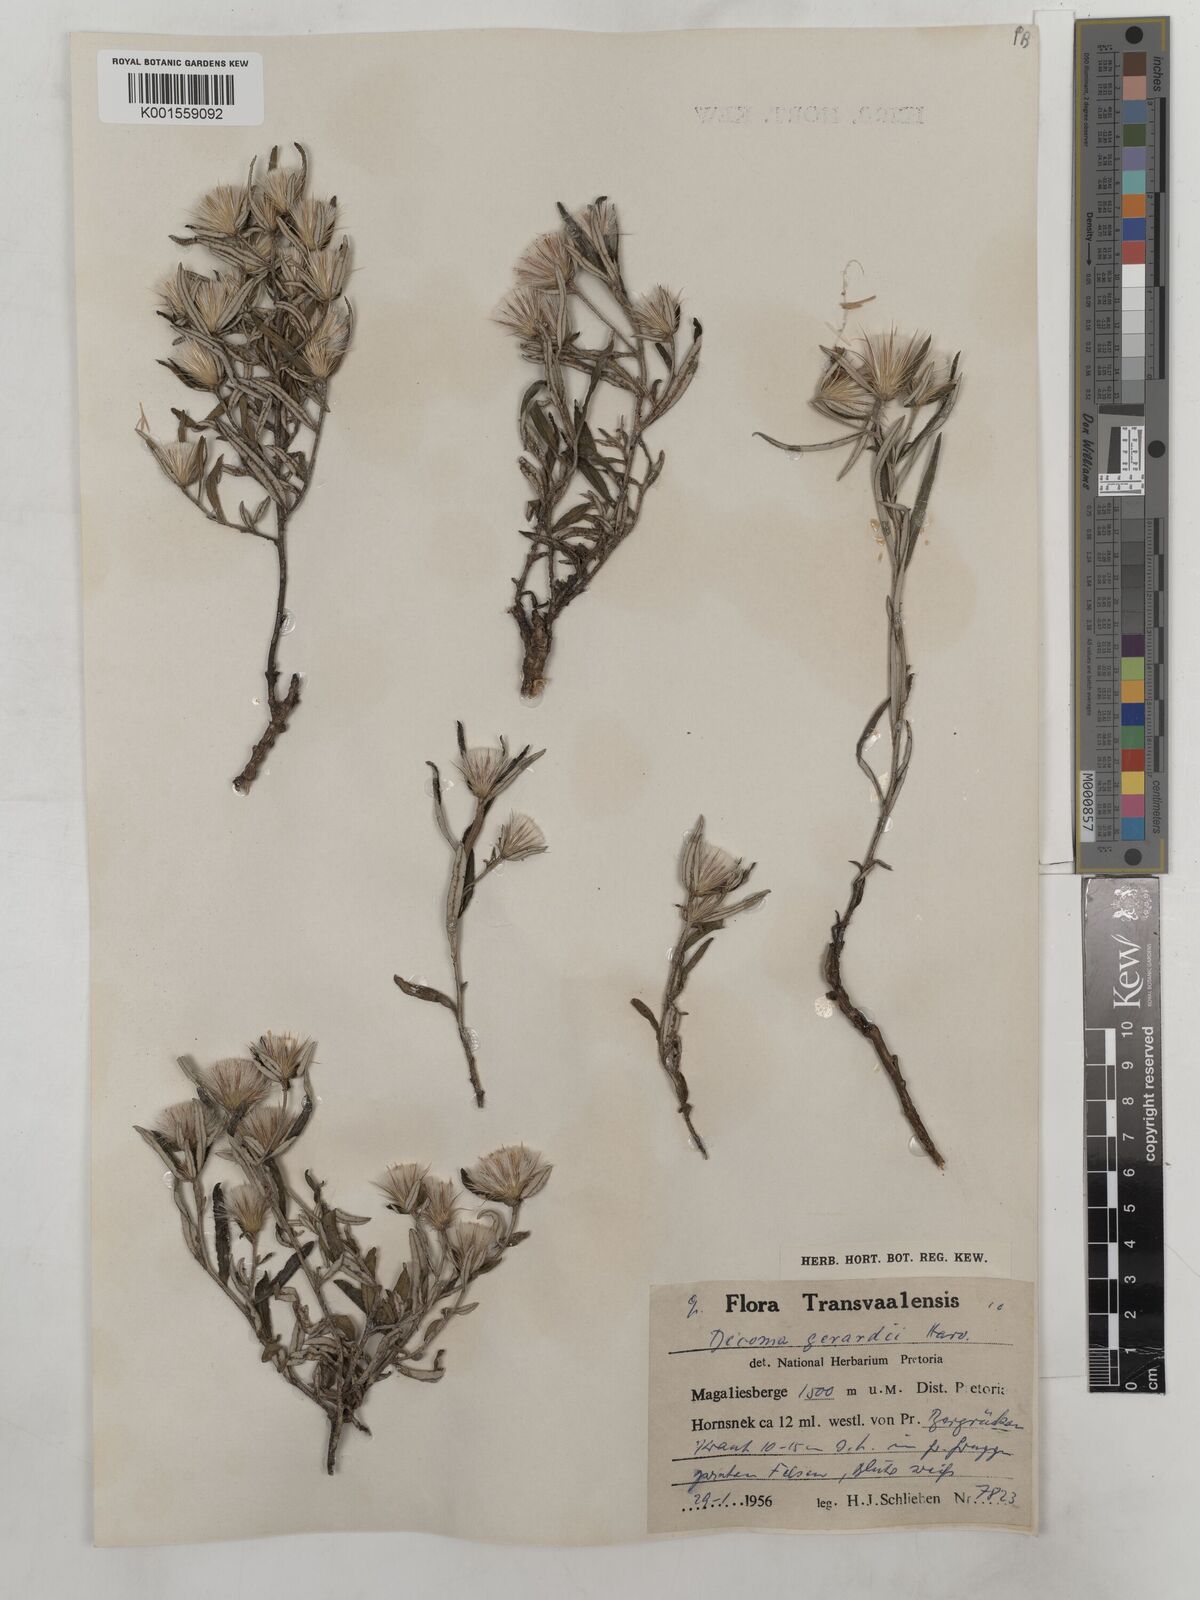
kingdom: Plantae
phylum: Tracheophyta
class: Magnoliopsida
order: Asterales
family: Asteraceae
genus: Dicoma
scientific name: Dicoma anomala
